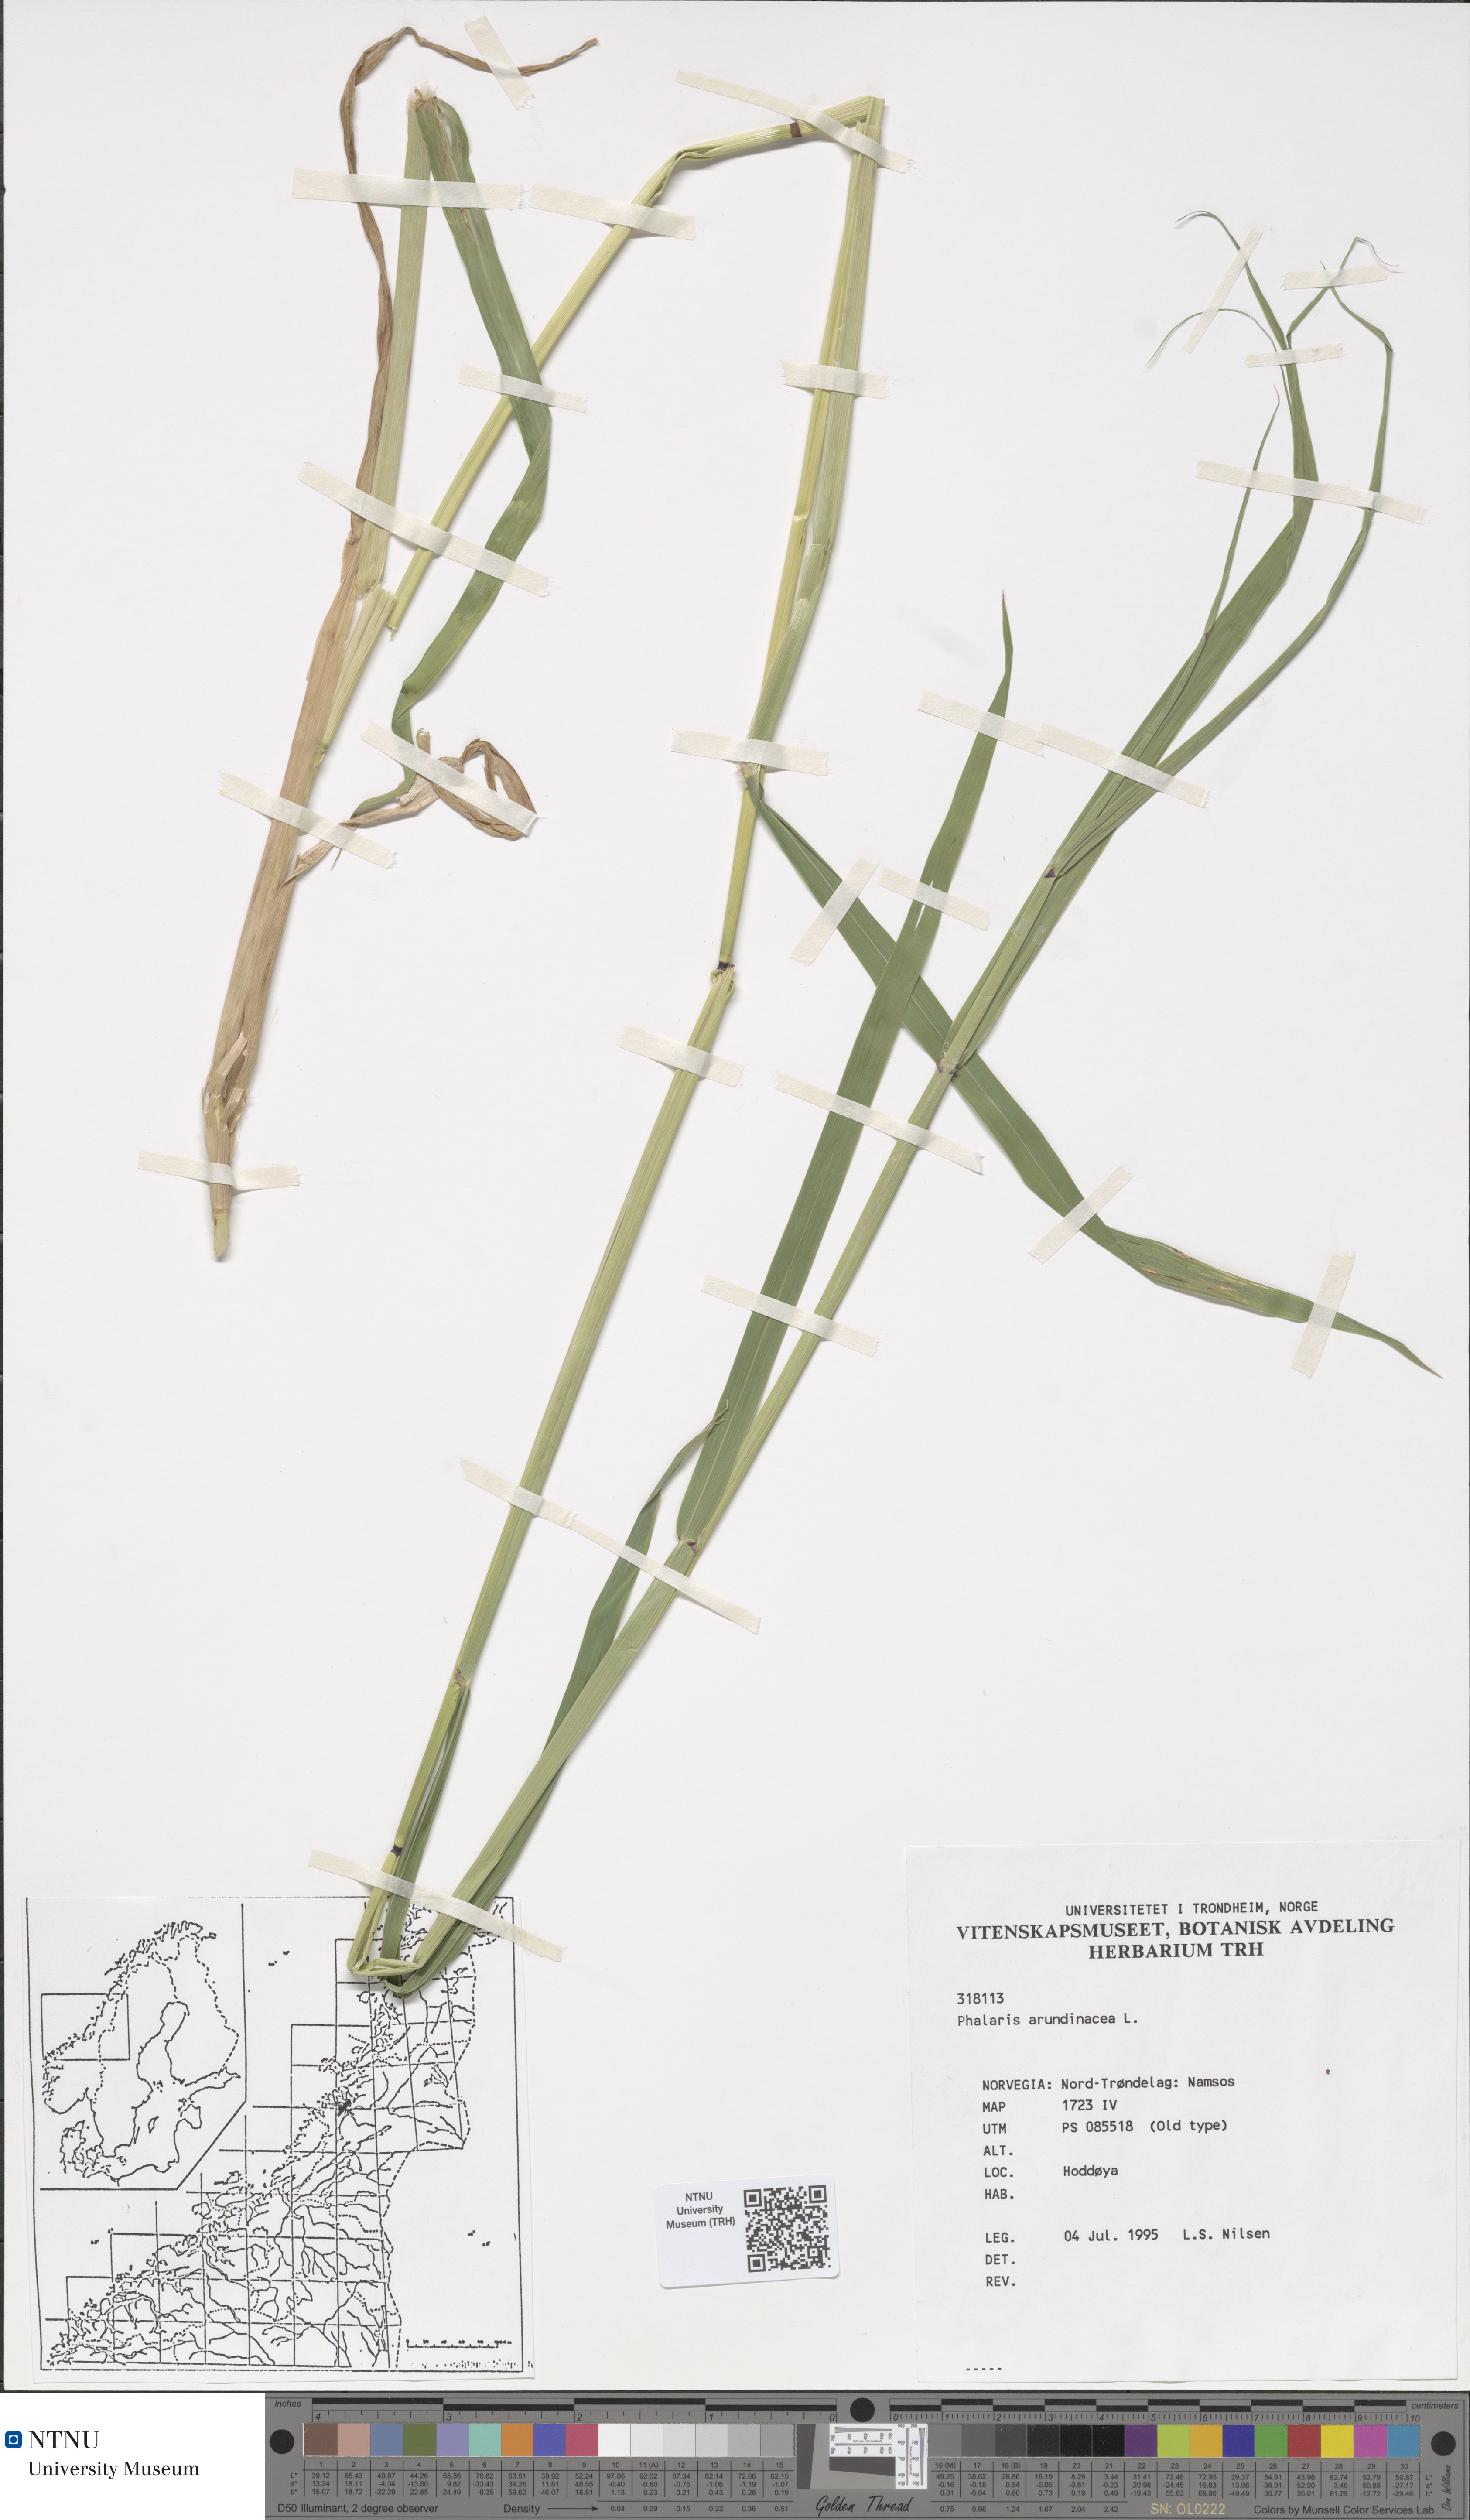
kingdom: Plantae
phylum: Tracheophyta
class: Liliopsida
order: Poales
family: Poaceae
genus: Phalaris
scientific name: Phalaris arundinacea
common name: Reed canary-grass
